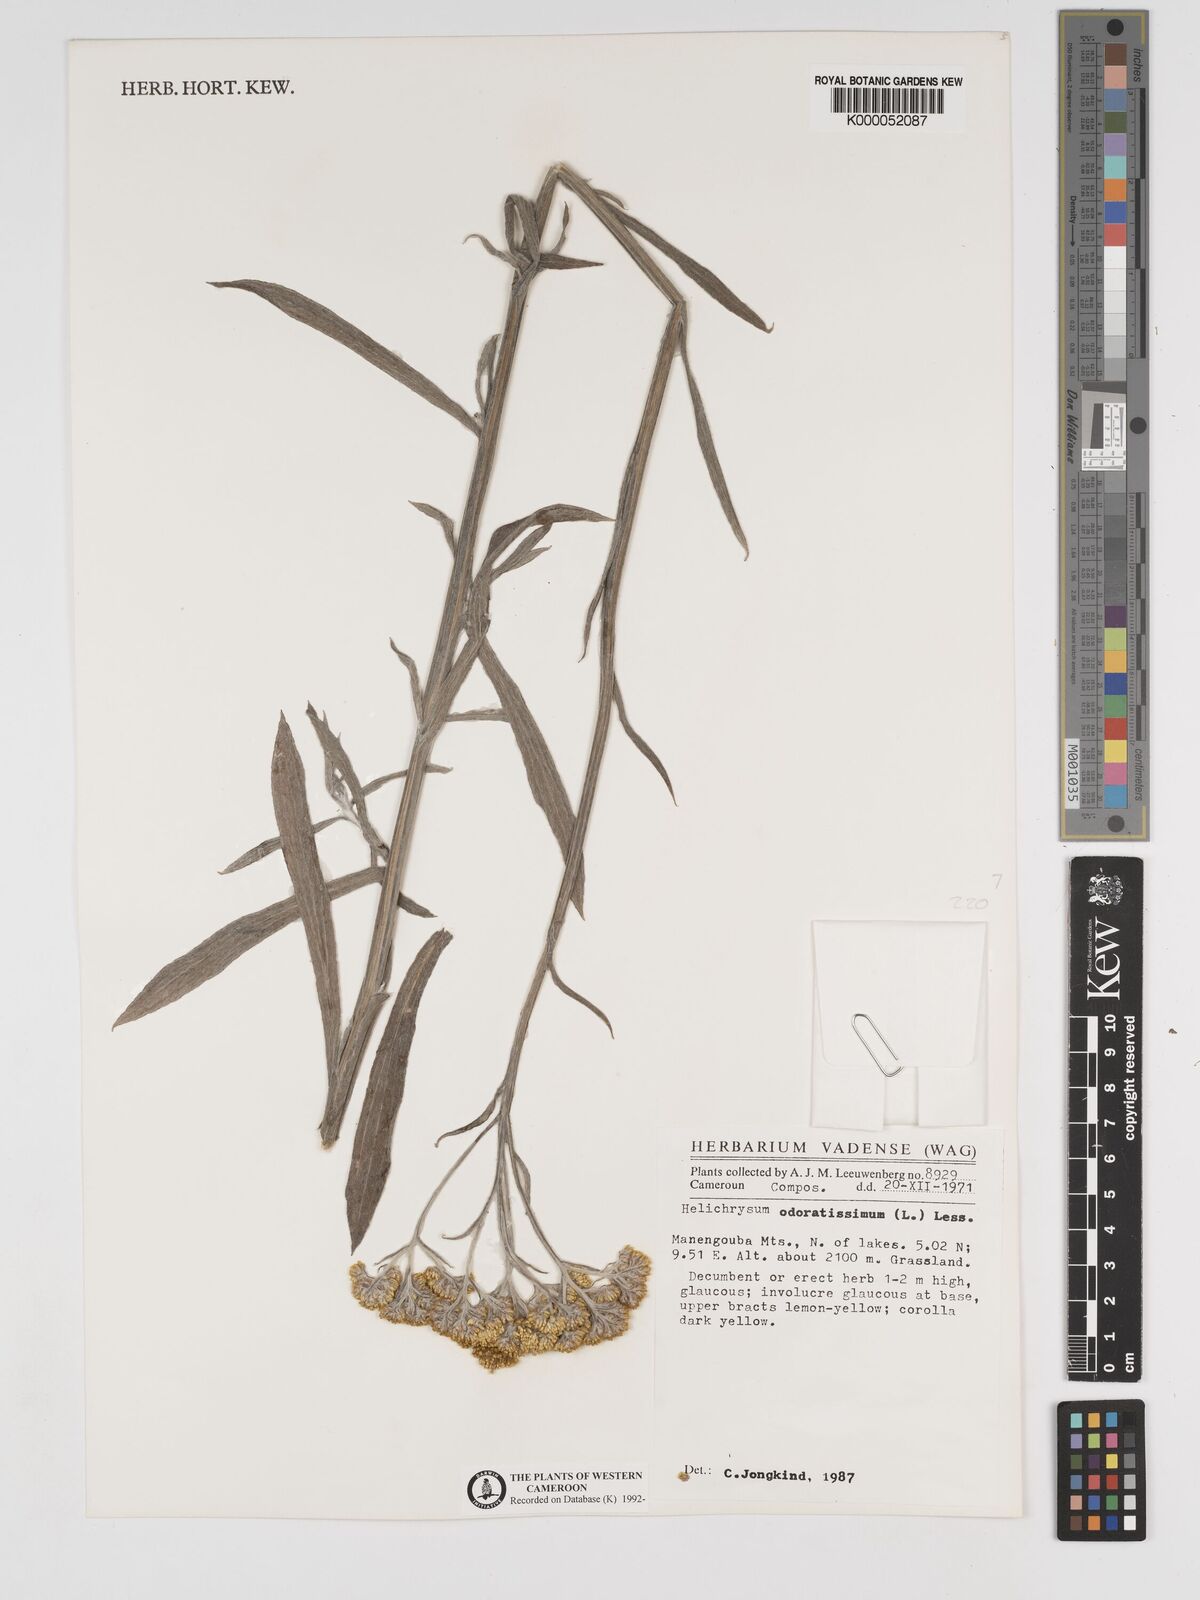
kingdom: Plantae
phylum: Tracheophyta
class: Magnoliopsida
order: Asterales
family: Asteraceae
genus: Helichrysum
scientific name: Helichrysum odoratissimum
